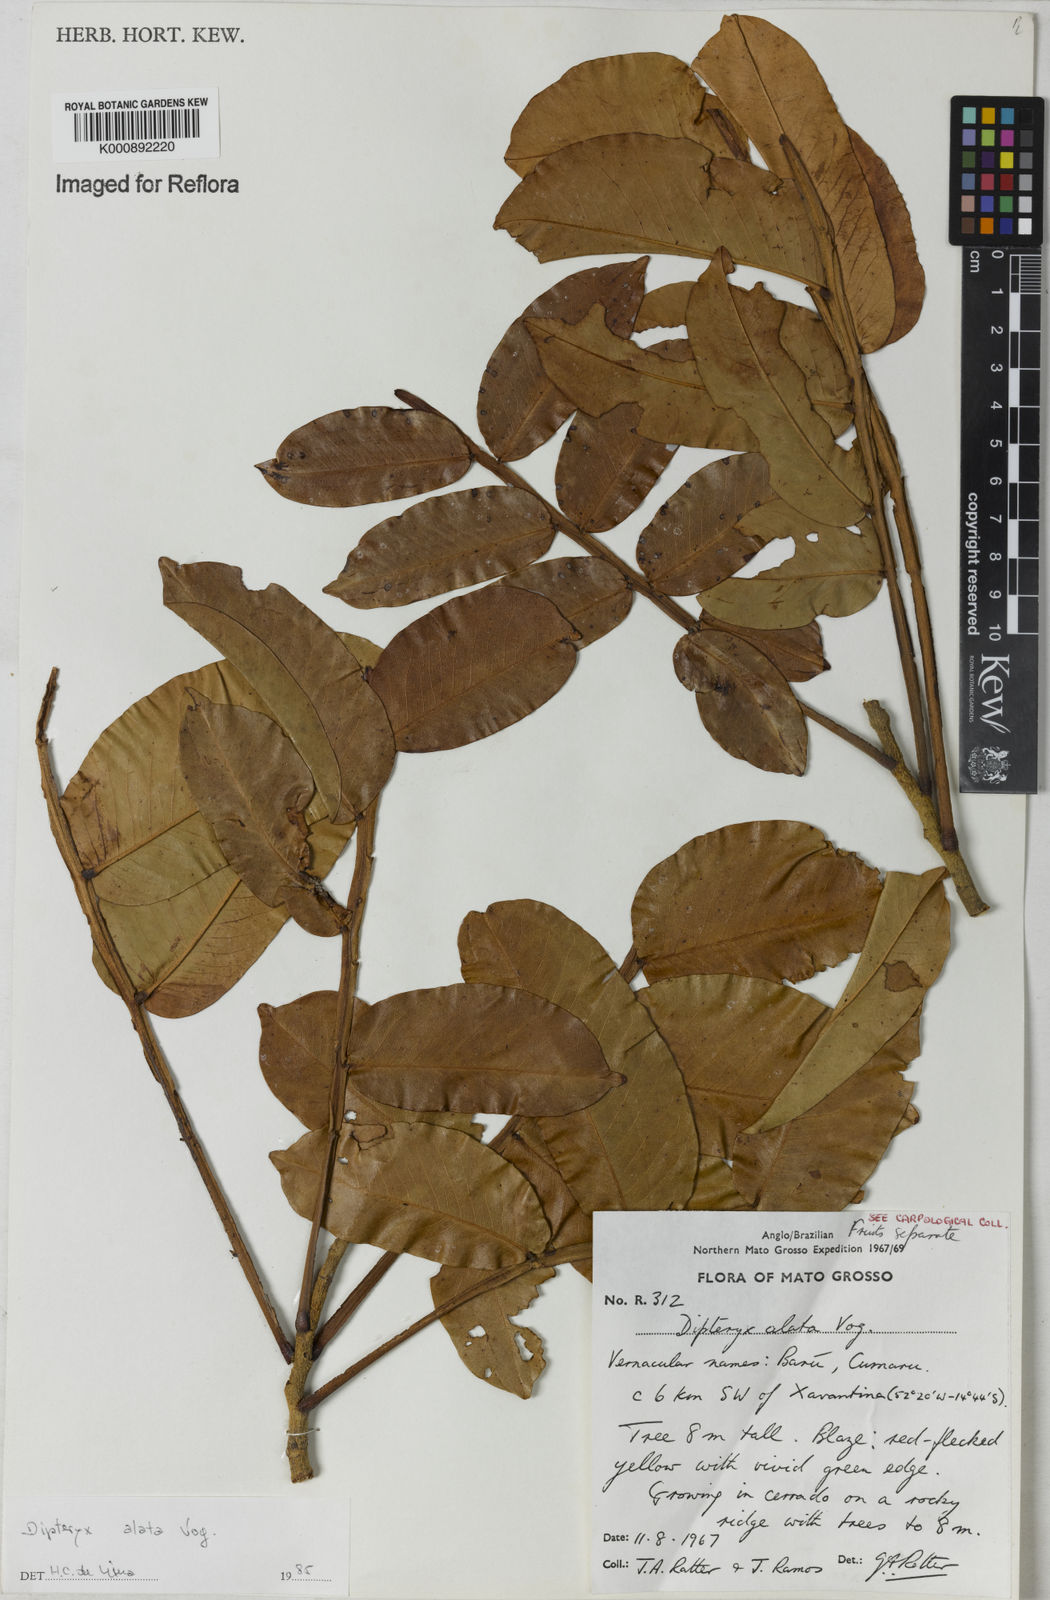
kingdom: Plantae
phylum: Tracheophyta
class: Magnoliopsida
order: Fabales
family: Fabaceae
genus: Dipteryx
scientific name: Dipteryx alata
